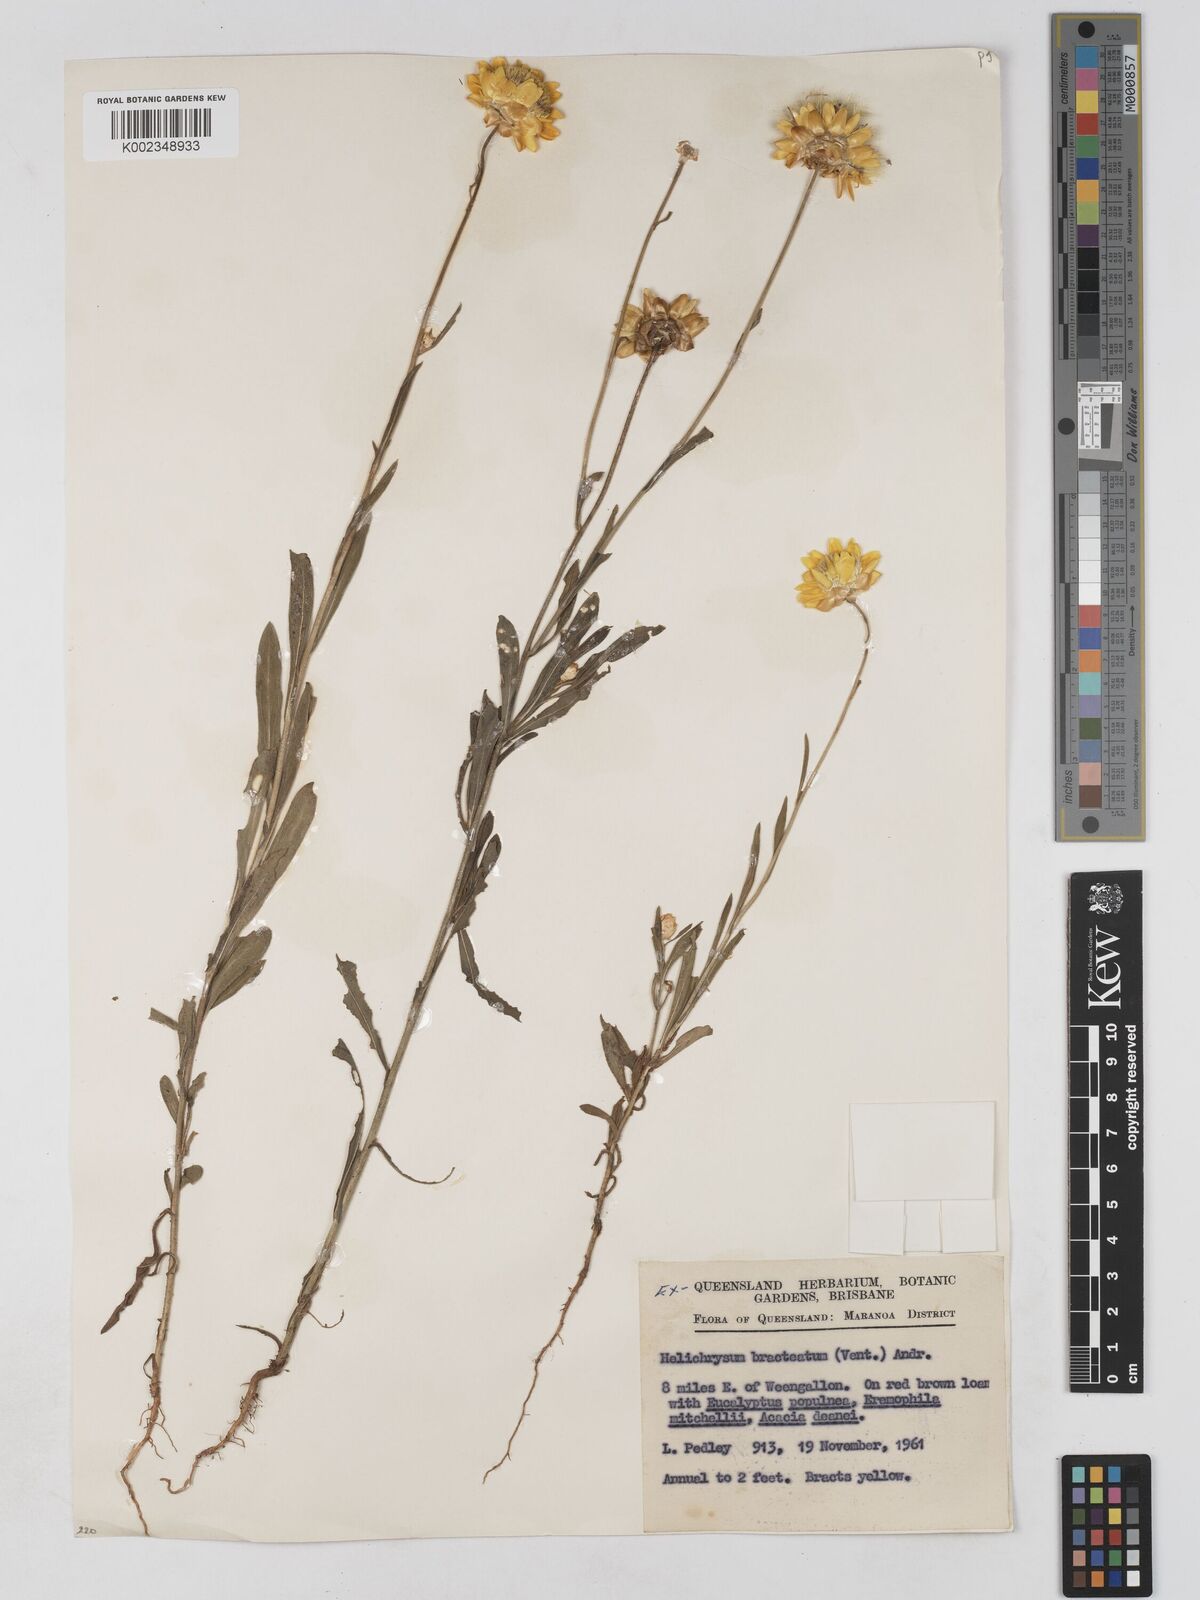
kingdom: Plantae
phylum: Tracheophyta
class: Magnoliopsida
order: Asterales
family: Asteraceae
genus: Xerochrysum
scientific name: Xerochrysum bracteatum
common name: Bracted strawflower
